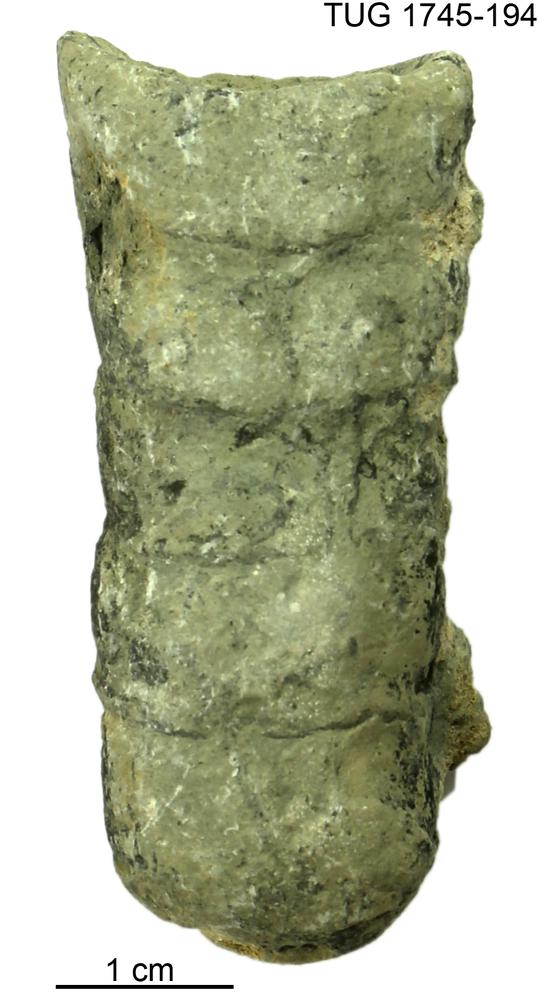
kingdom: Animalia
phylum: Mollusca
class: Cephalopoda
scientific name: Cephalopoda
